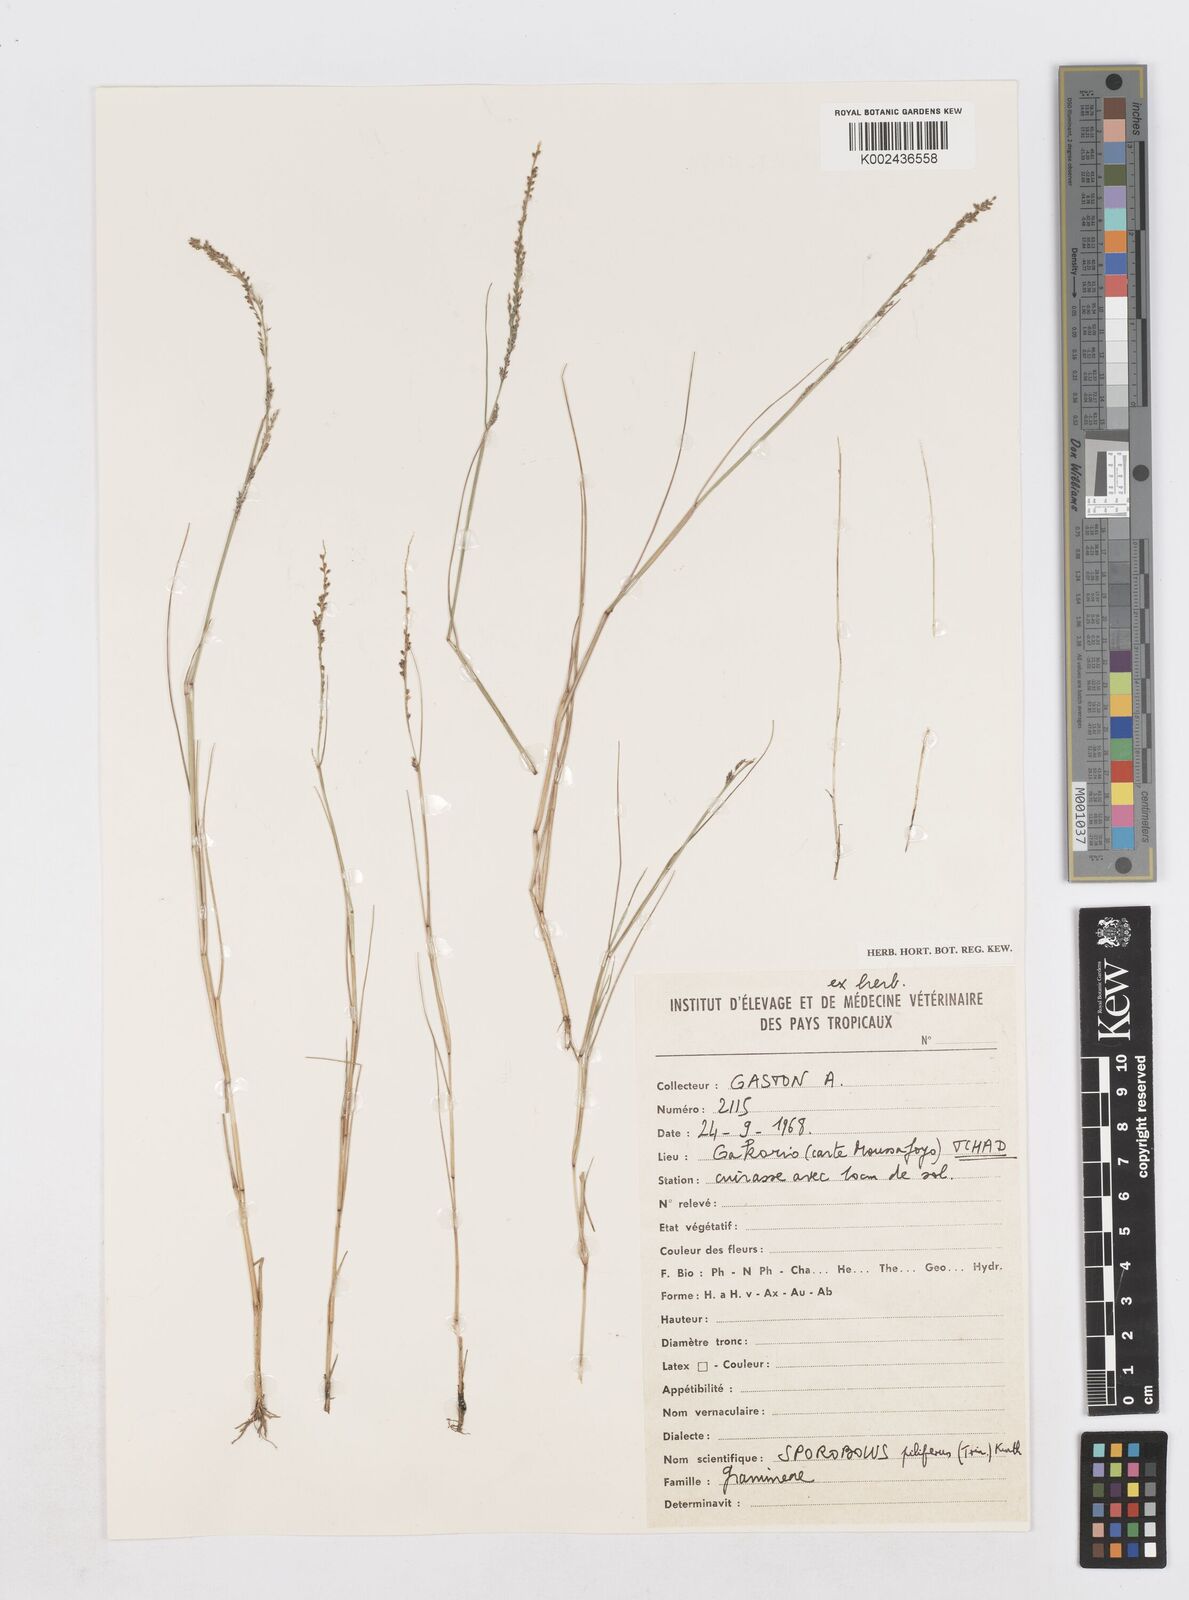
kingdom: Plantae
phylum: Tracheophyta
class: Liliopsida
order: Poales
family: Poaceae
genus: Sporobolus
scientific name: Sporobolus pilifer
